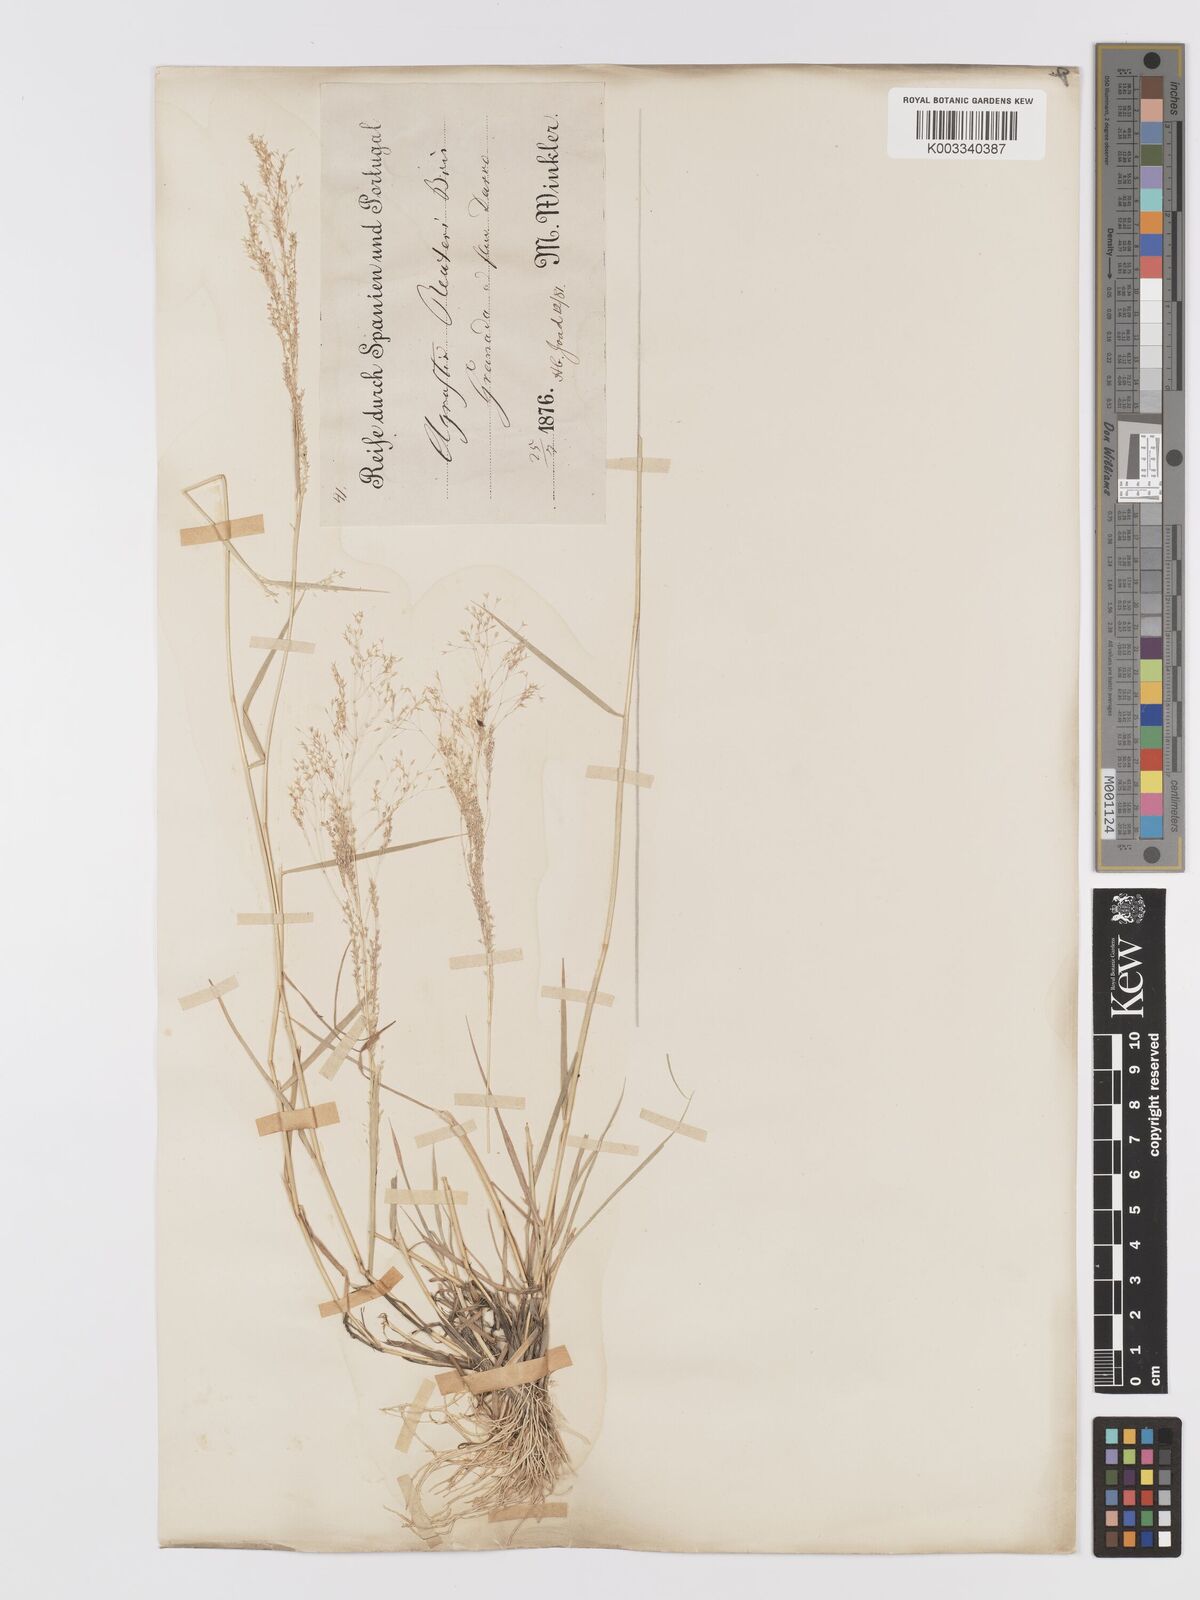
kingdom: Plantae
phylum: Tracheophyta
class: Liliopsida
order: Poales
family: Poaceae
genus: Agrostis
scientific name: Agrostis reuteri
